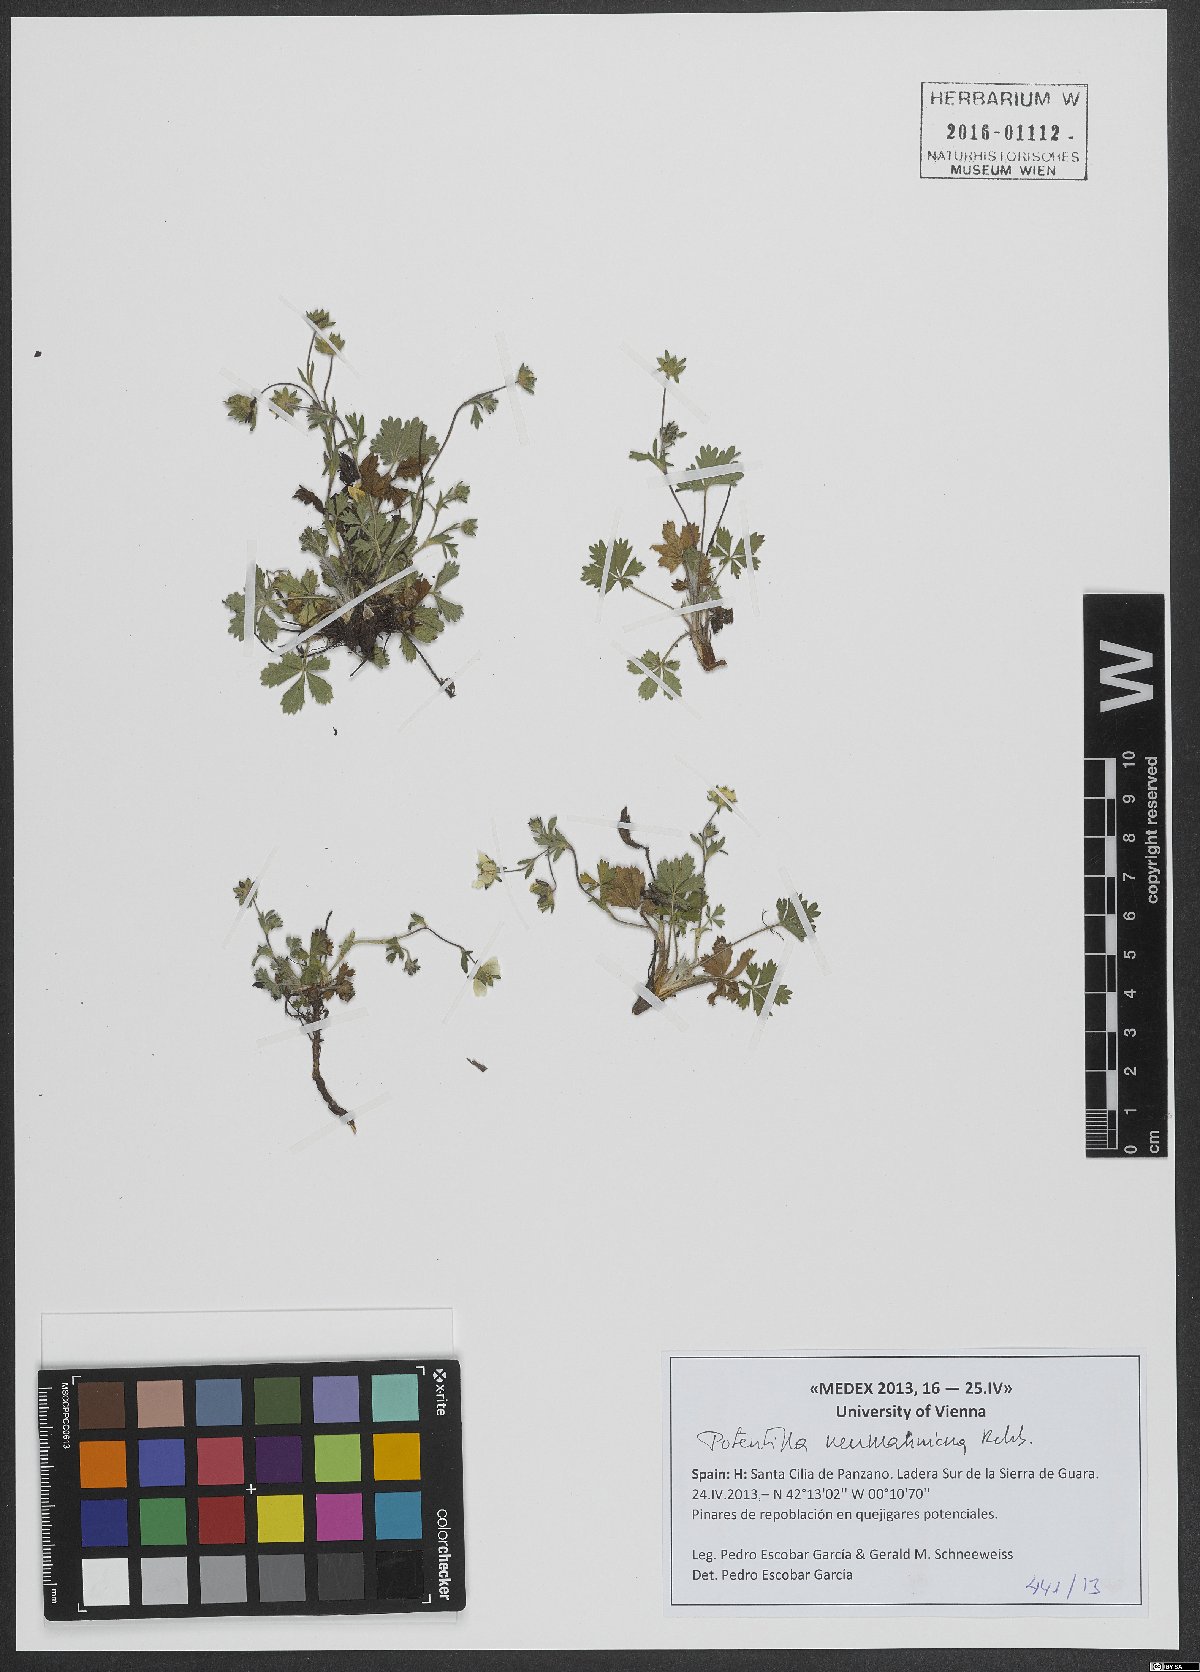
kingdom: Plantae
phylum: Tracheophyta
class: Magnoliopsida
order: Rosales
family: Rosaceae
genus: Potentilla
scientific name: Potentilla verna
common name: Spring cinquefoil
